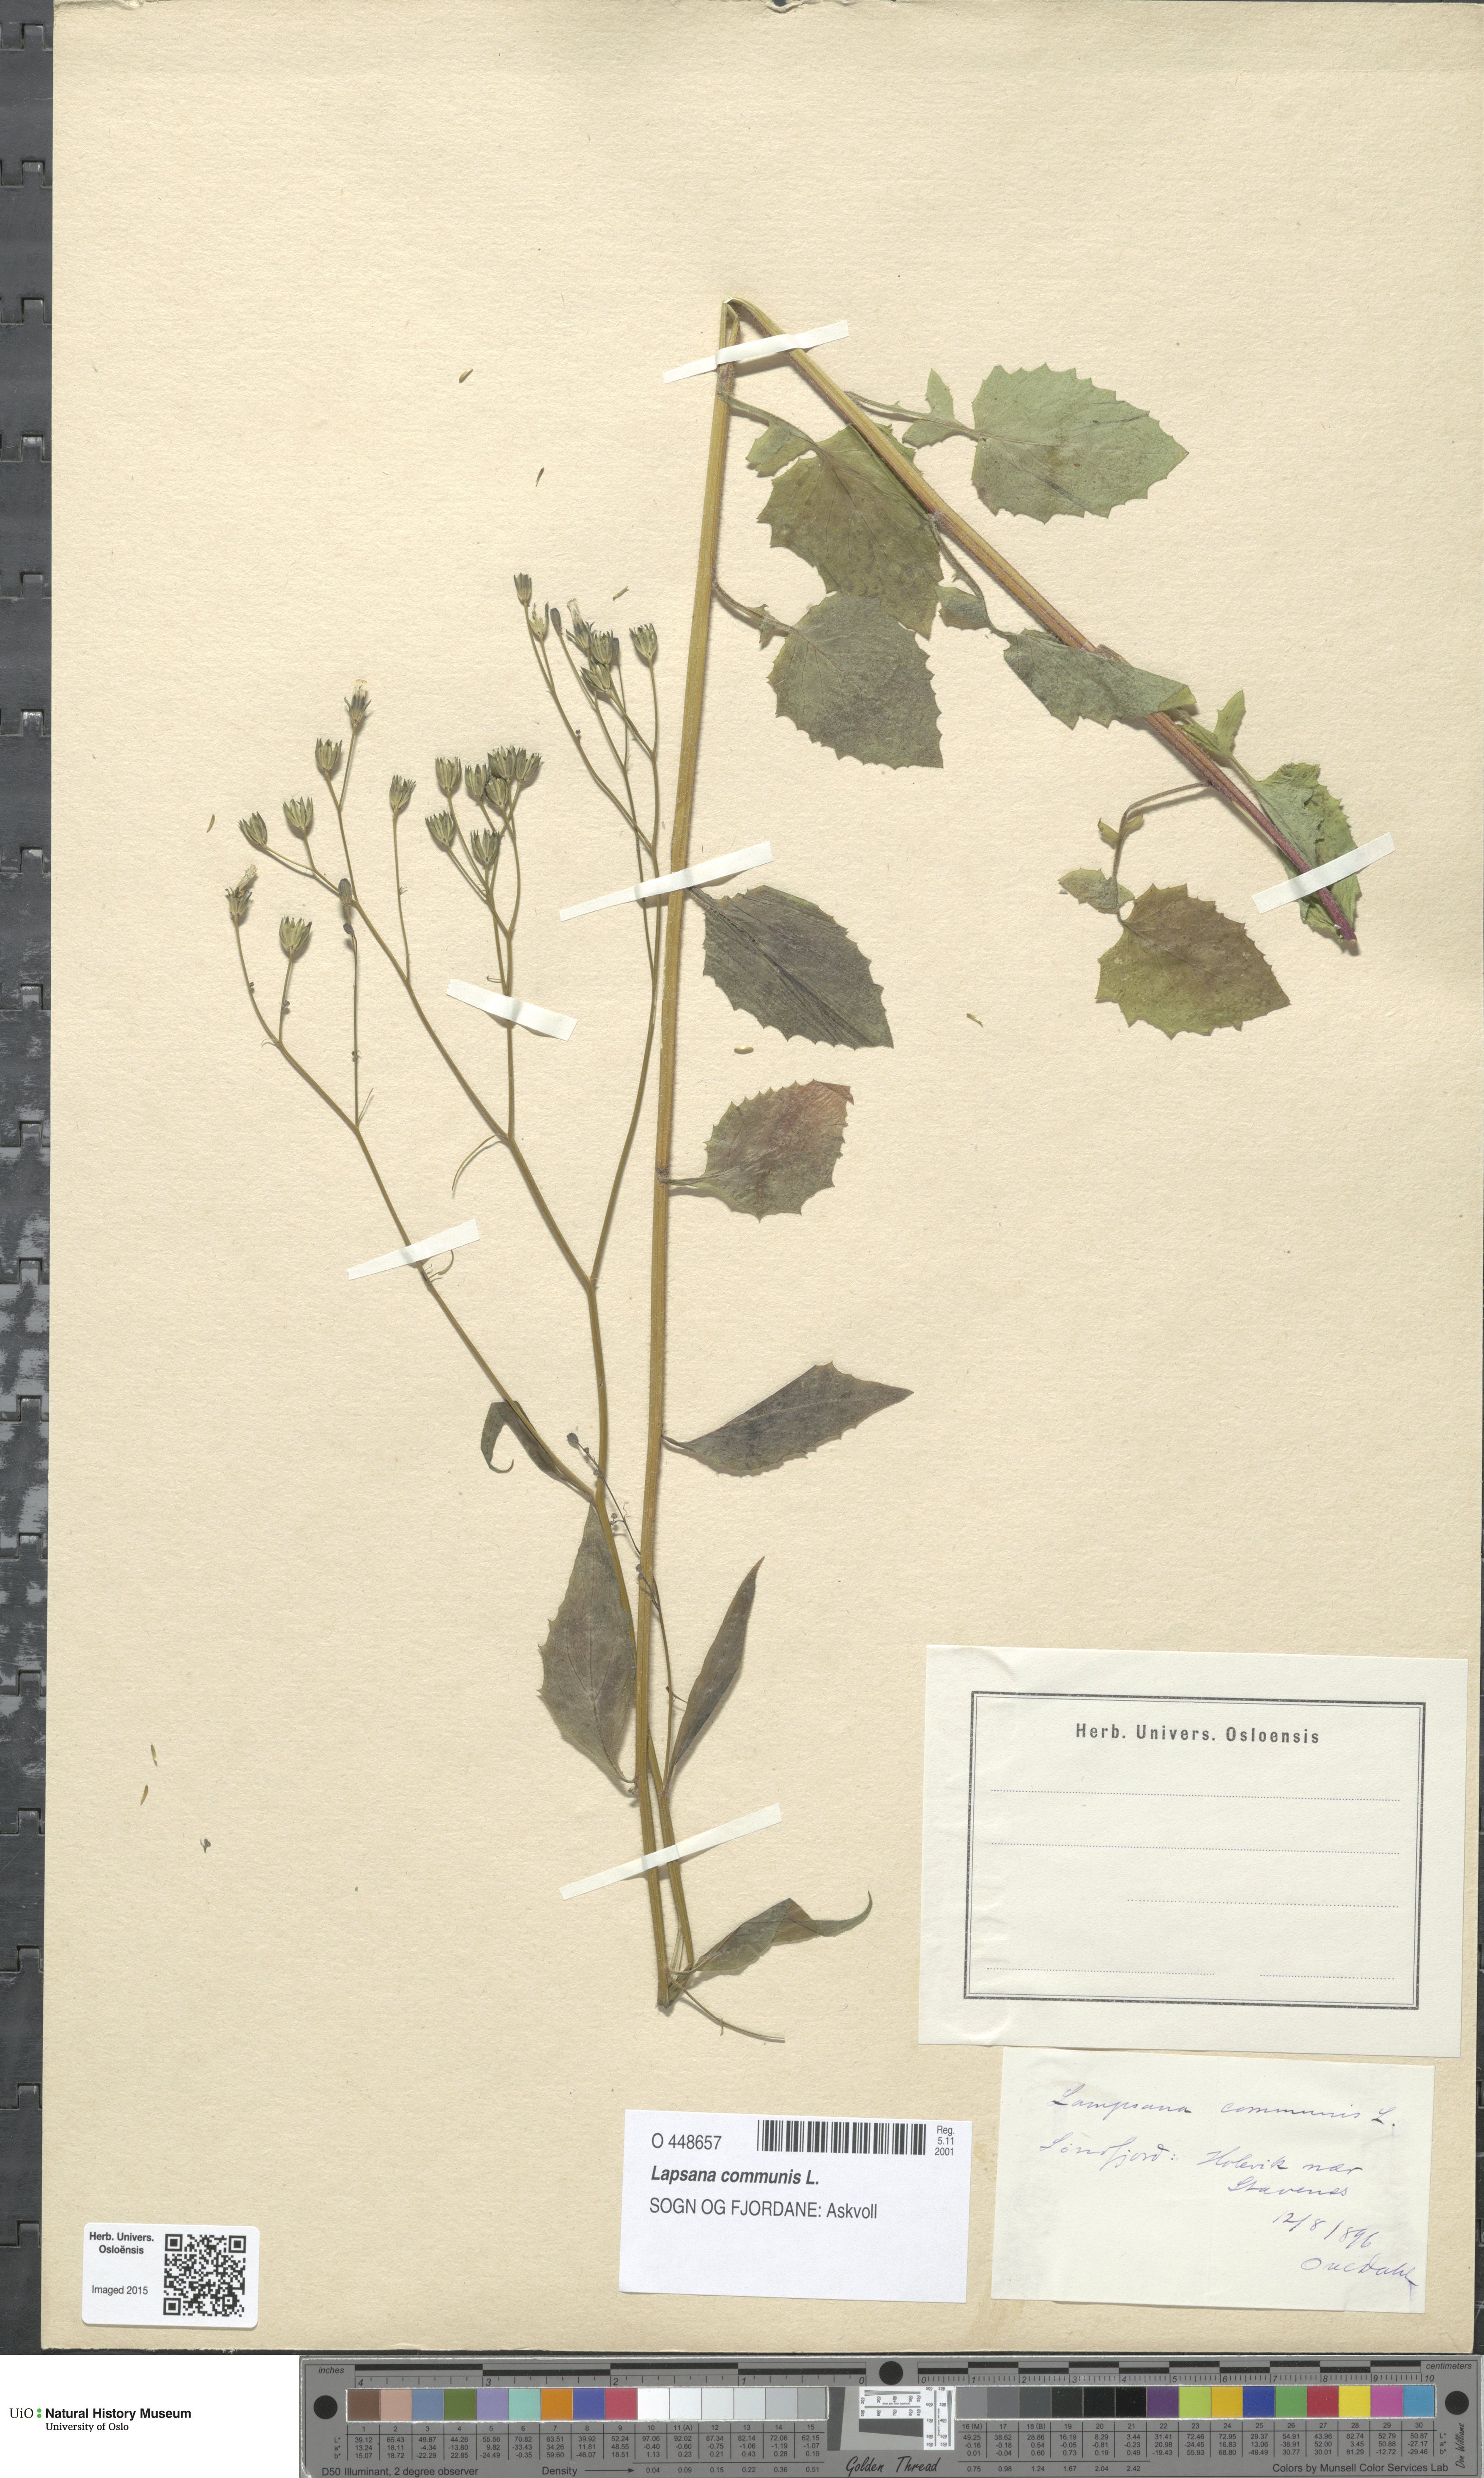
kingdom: Plantae
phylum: Tracheophyta
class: Magnoliopsida
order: Asterales
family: Asteraceae
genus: Lapsana
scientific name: Lapsana communis
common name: Nipplewort
